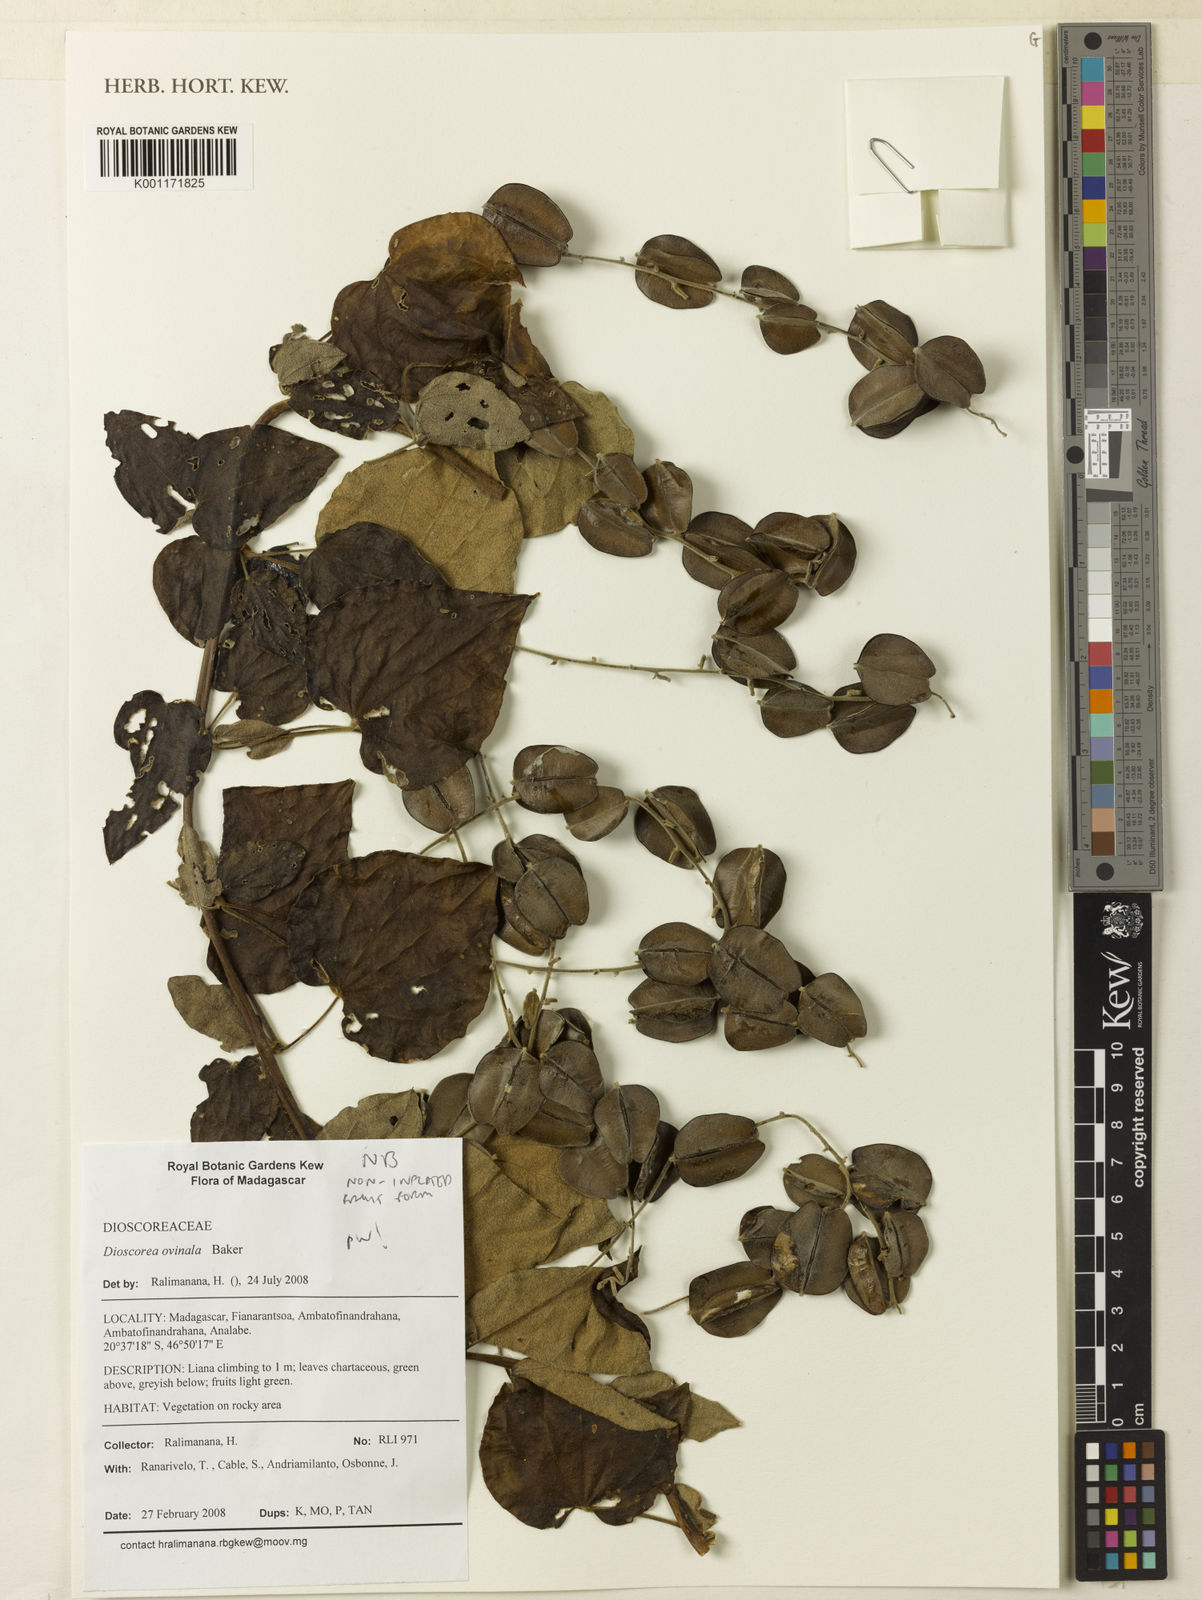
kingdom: Plantae
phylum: Tracheophyta
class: Liliopsida
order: Dioscoreales
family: Dioscoreaceae
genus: Dioscorea
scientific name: Dioscorea ovinala
